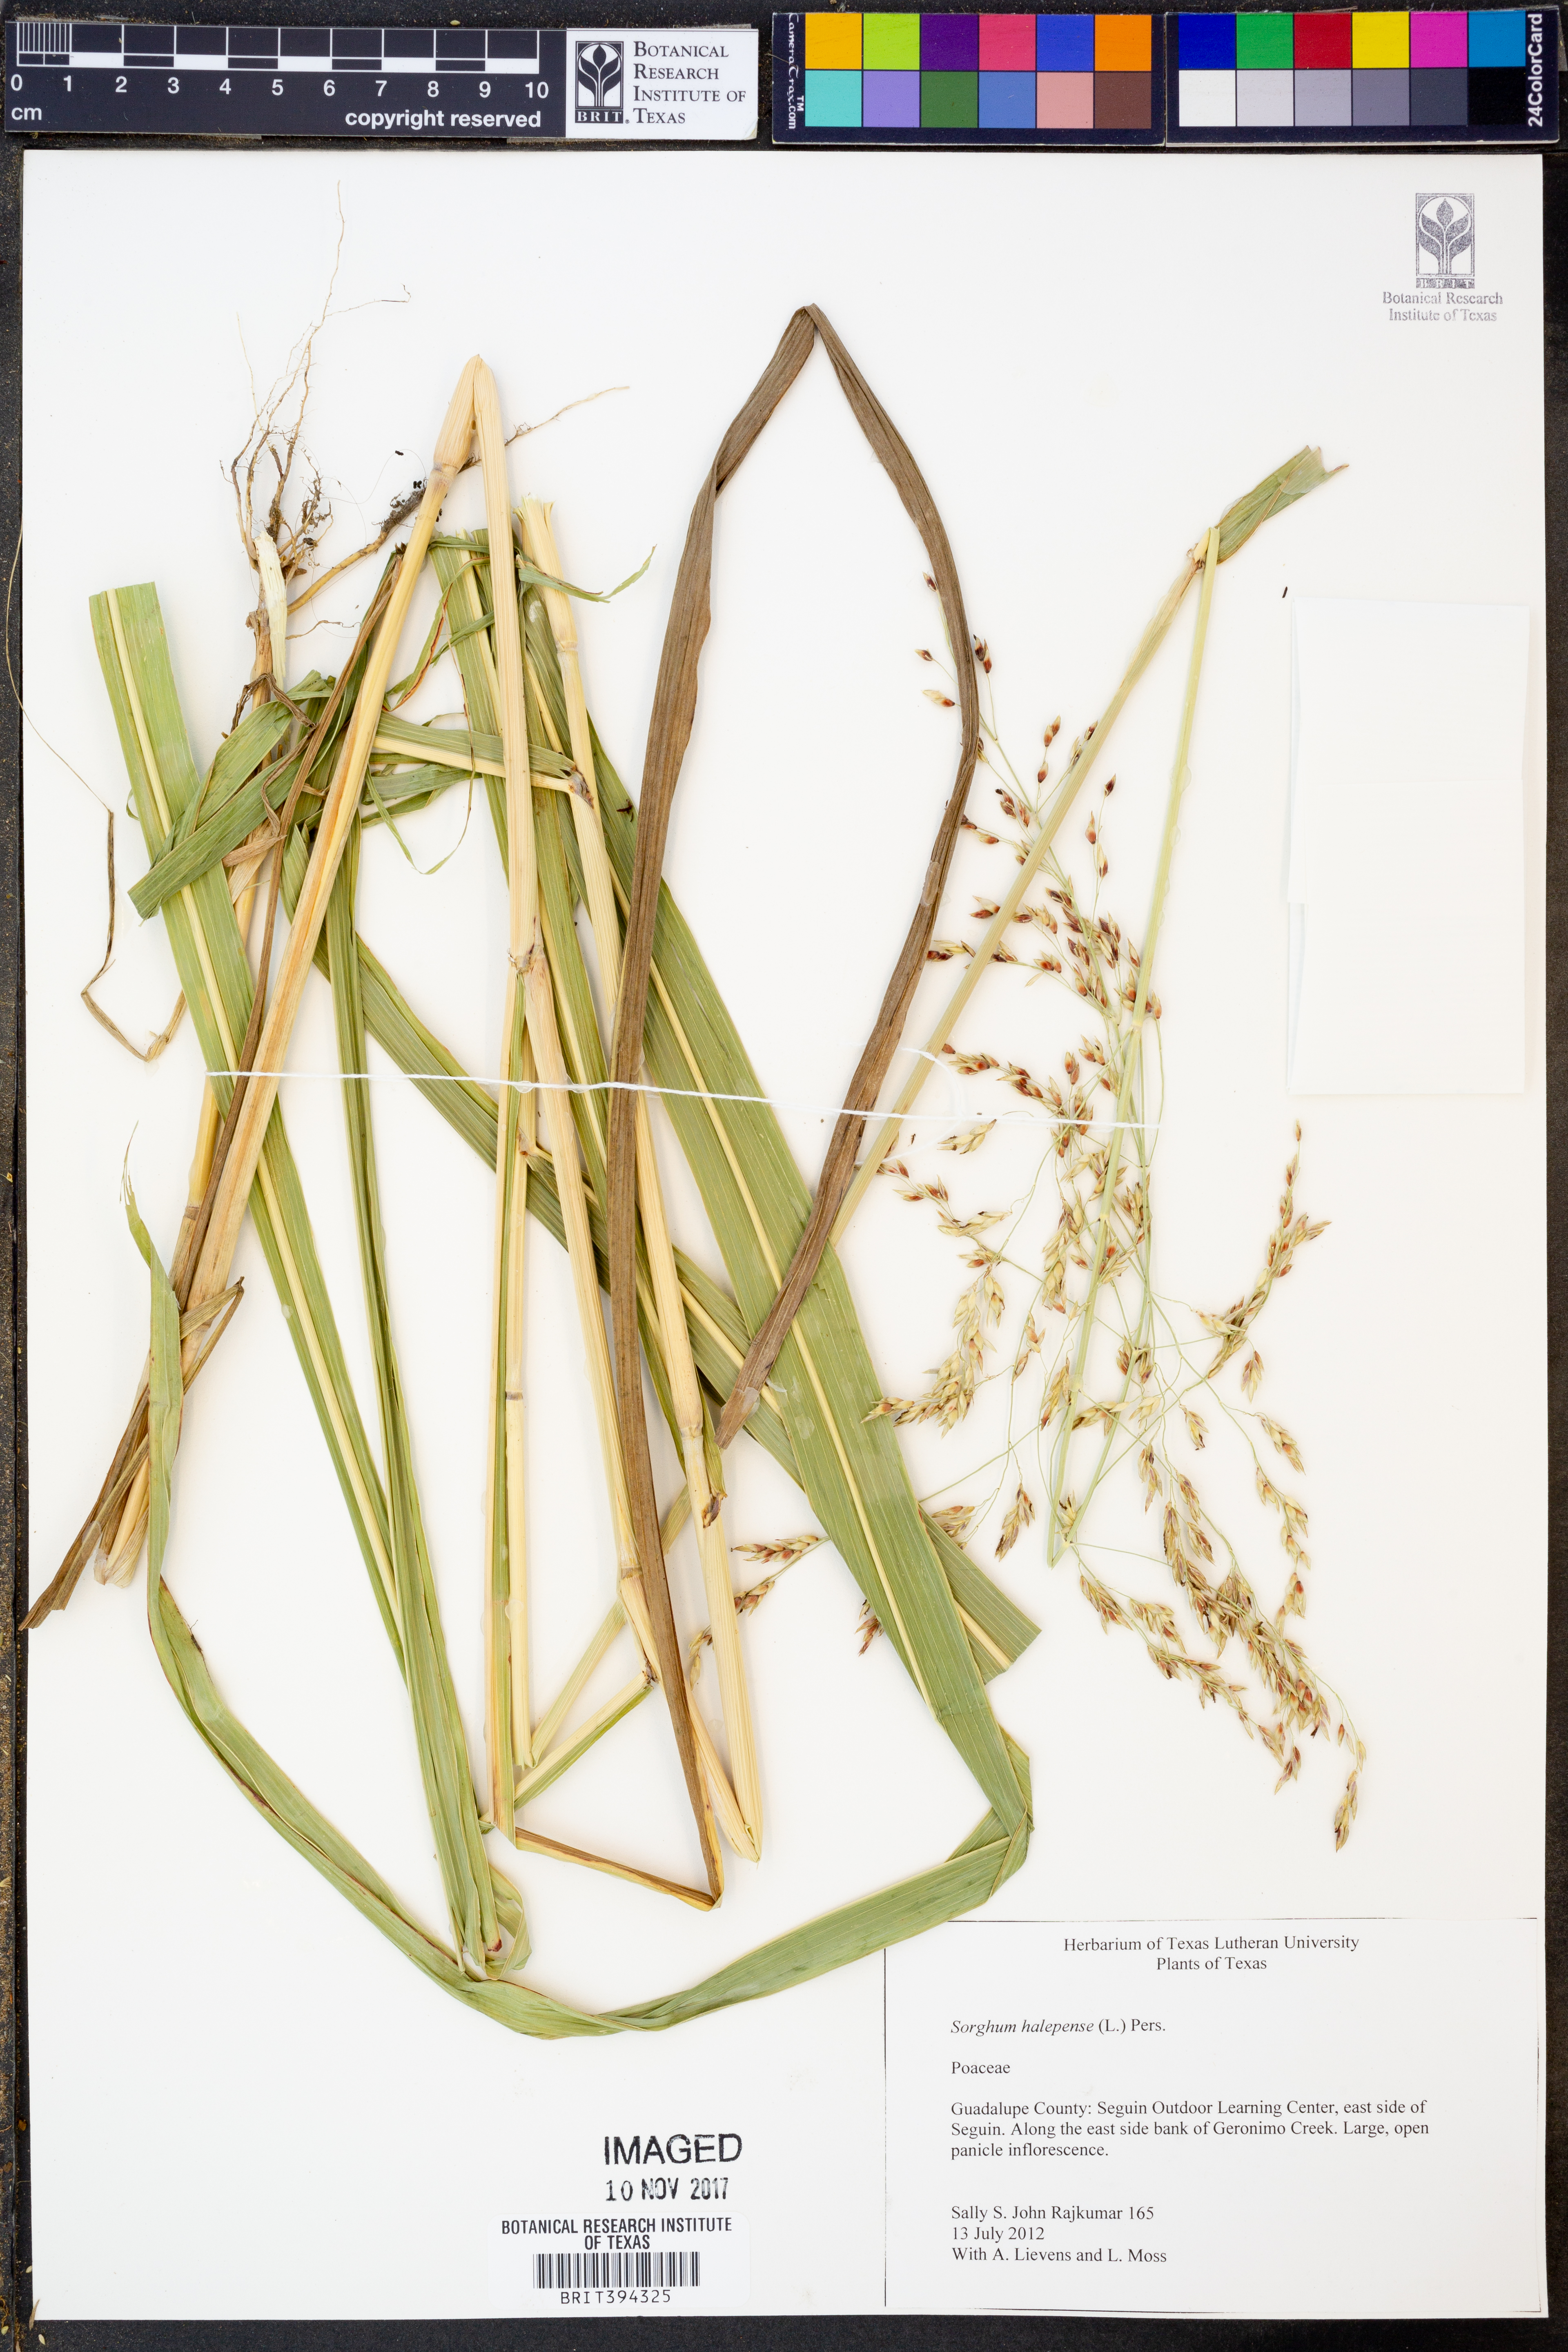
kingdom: Plantae
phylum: Tracheophyta
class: Liliopsida
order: Poales
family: Poaceae
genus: Sorghum
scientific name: Sorghum halepense
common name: Johnson-grass
